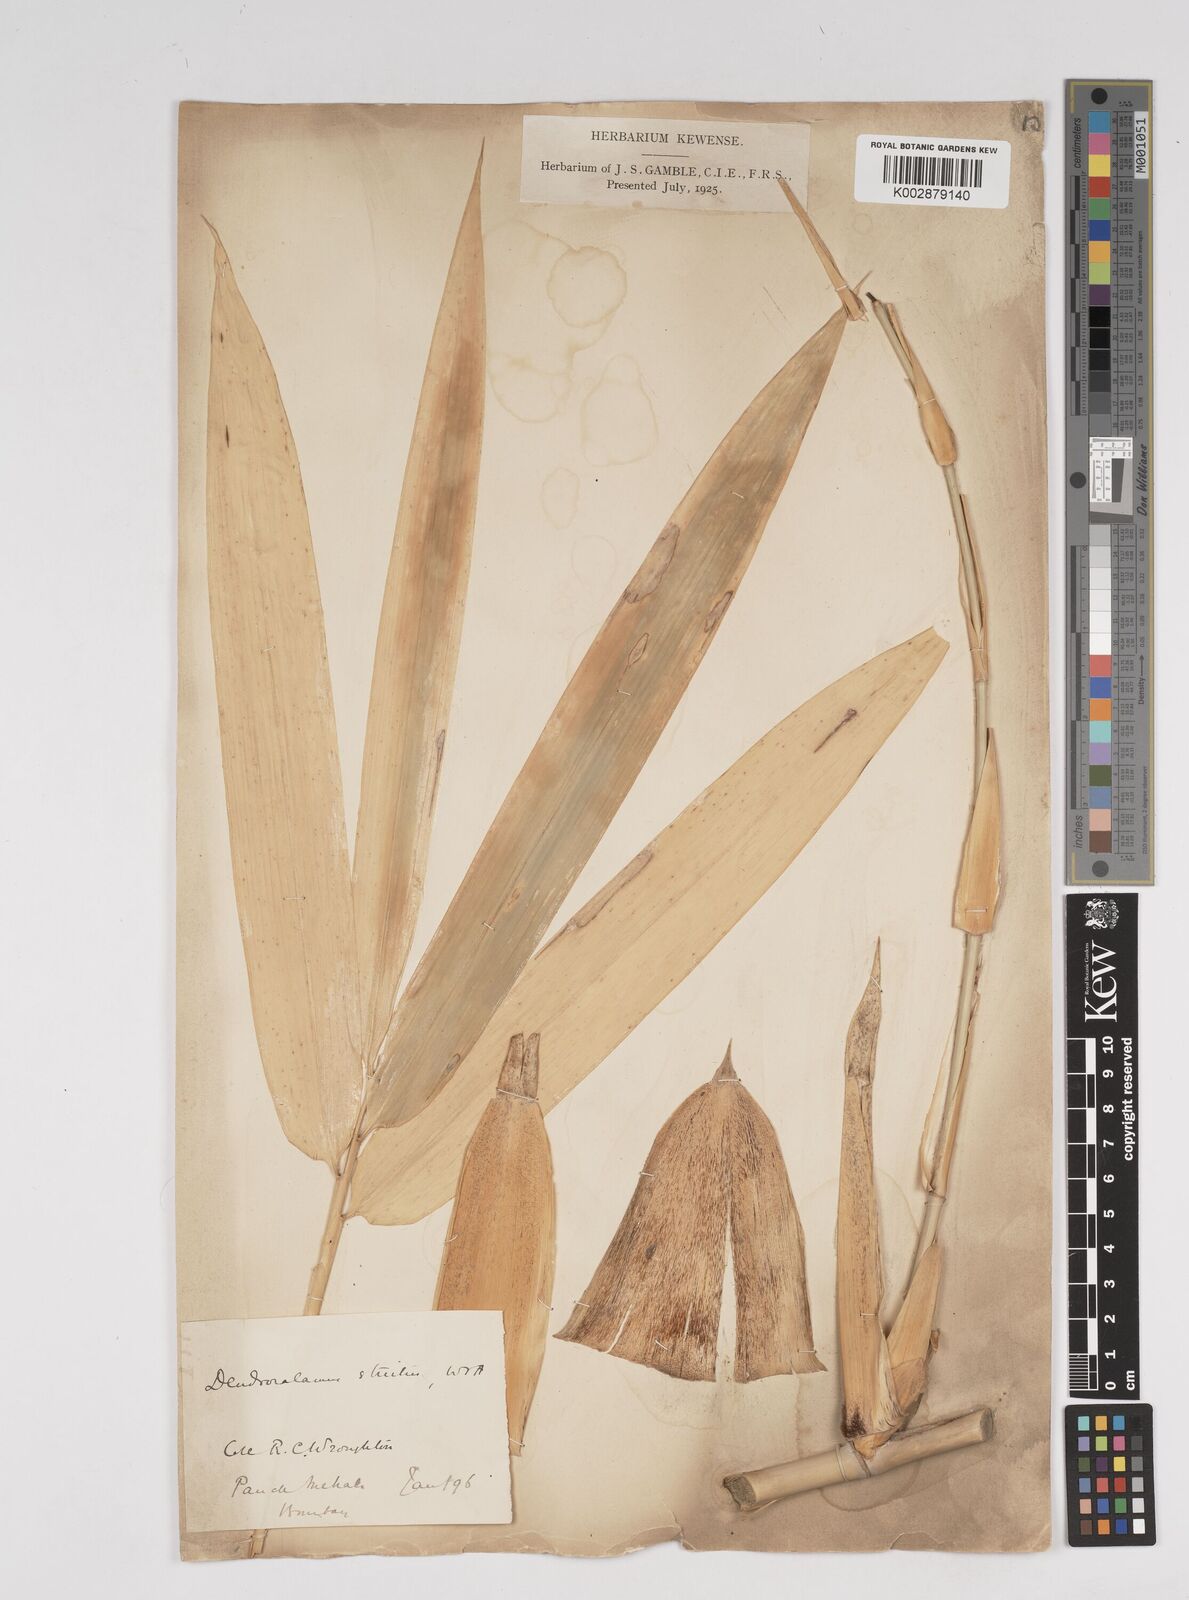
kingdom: Plantae
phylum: Tracheophyta
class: Liliopsida
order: Poales
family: Poaceae
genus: Dendrocalamus
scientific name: Dendrocalamus strictus
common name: Male bamboo
